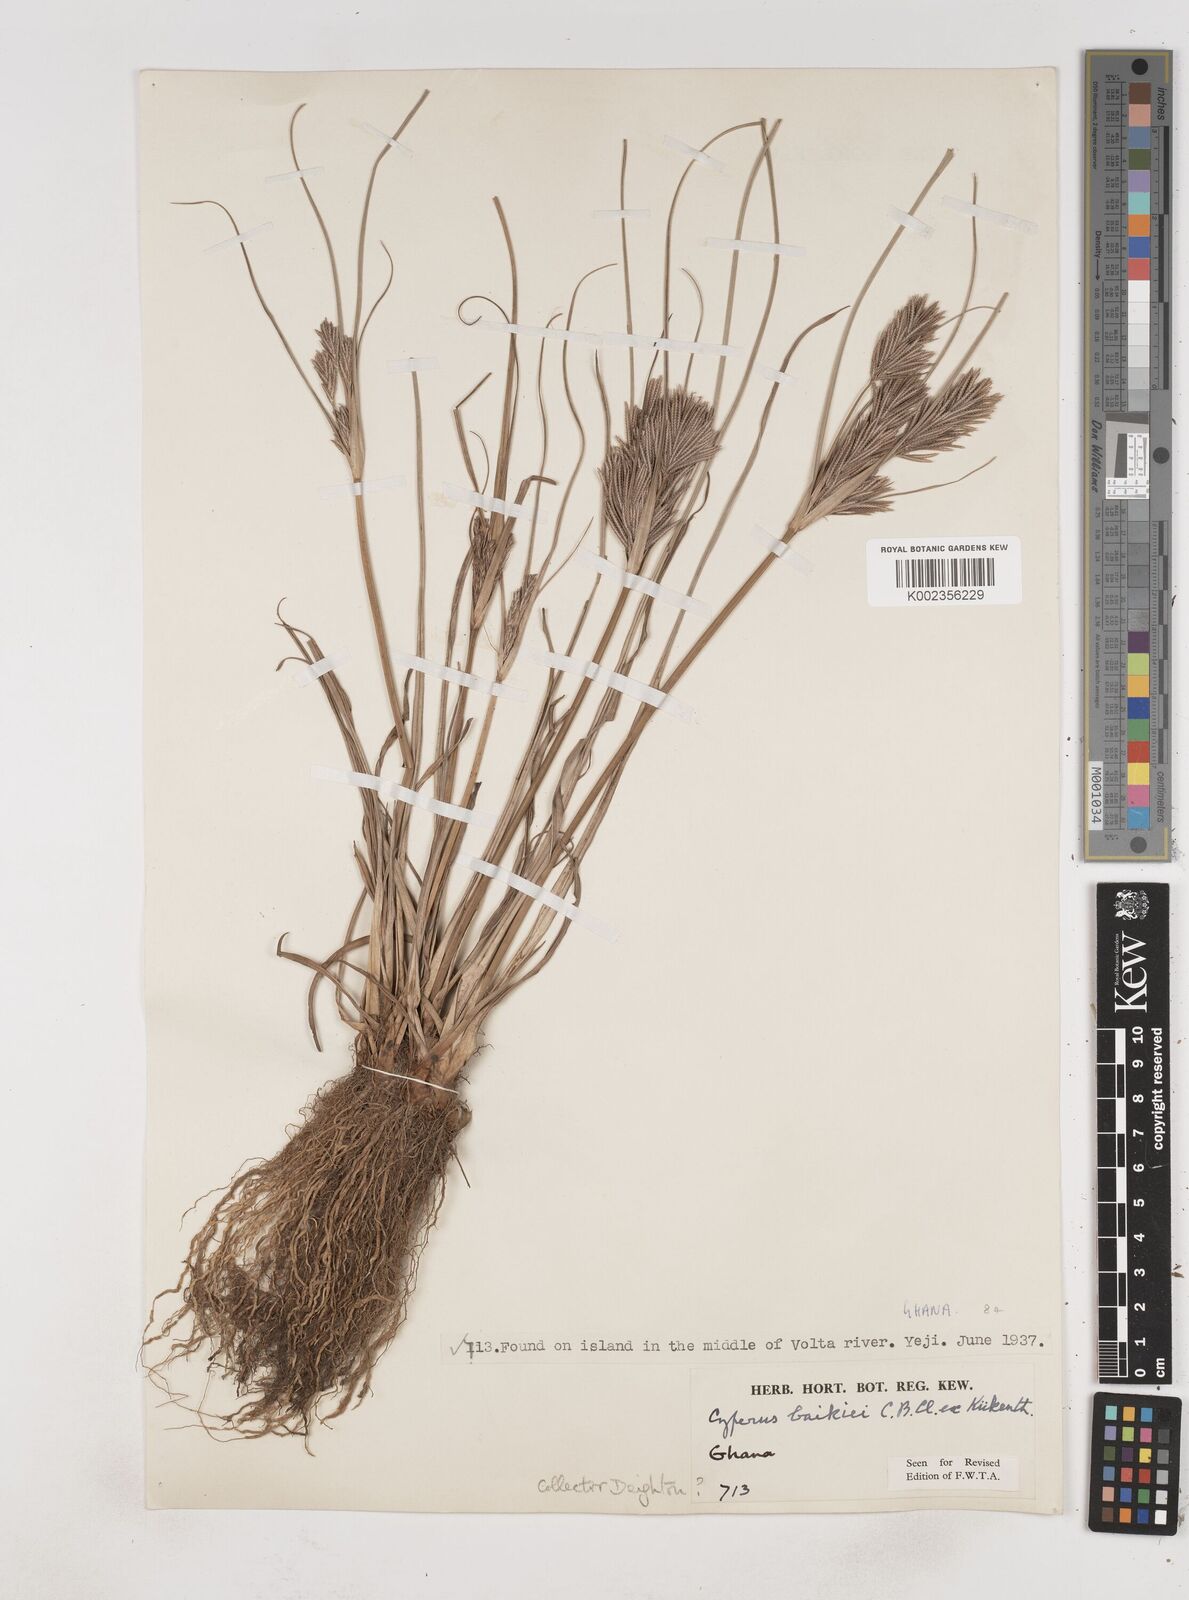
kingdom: Plantae
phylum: Tracheophyta
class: Liliopsida
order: Poales
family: Cyperaceae
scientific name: Cyperaceae
